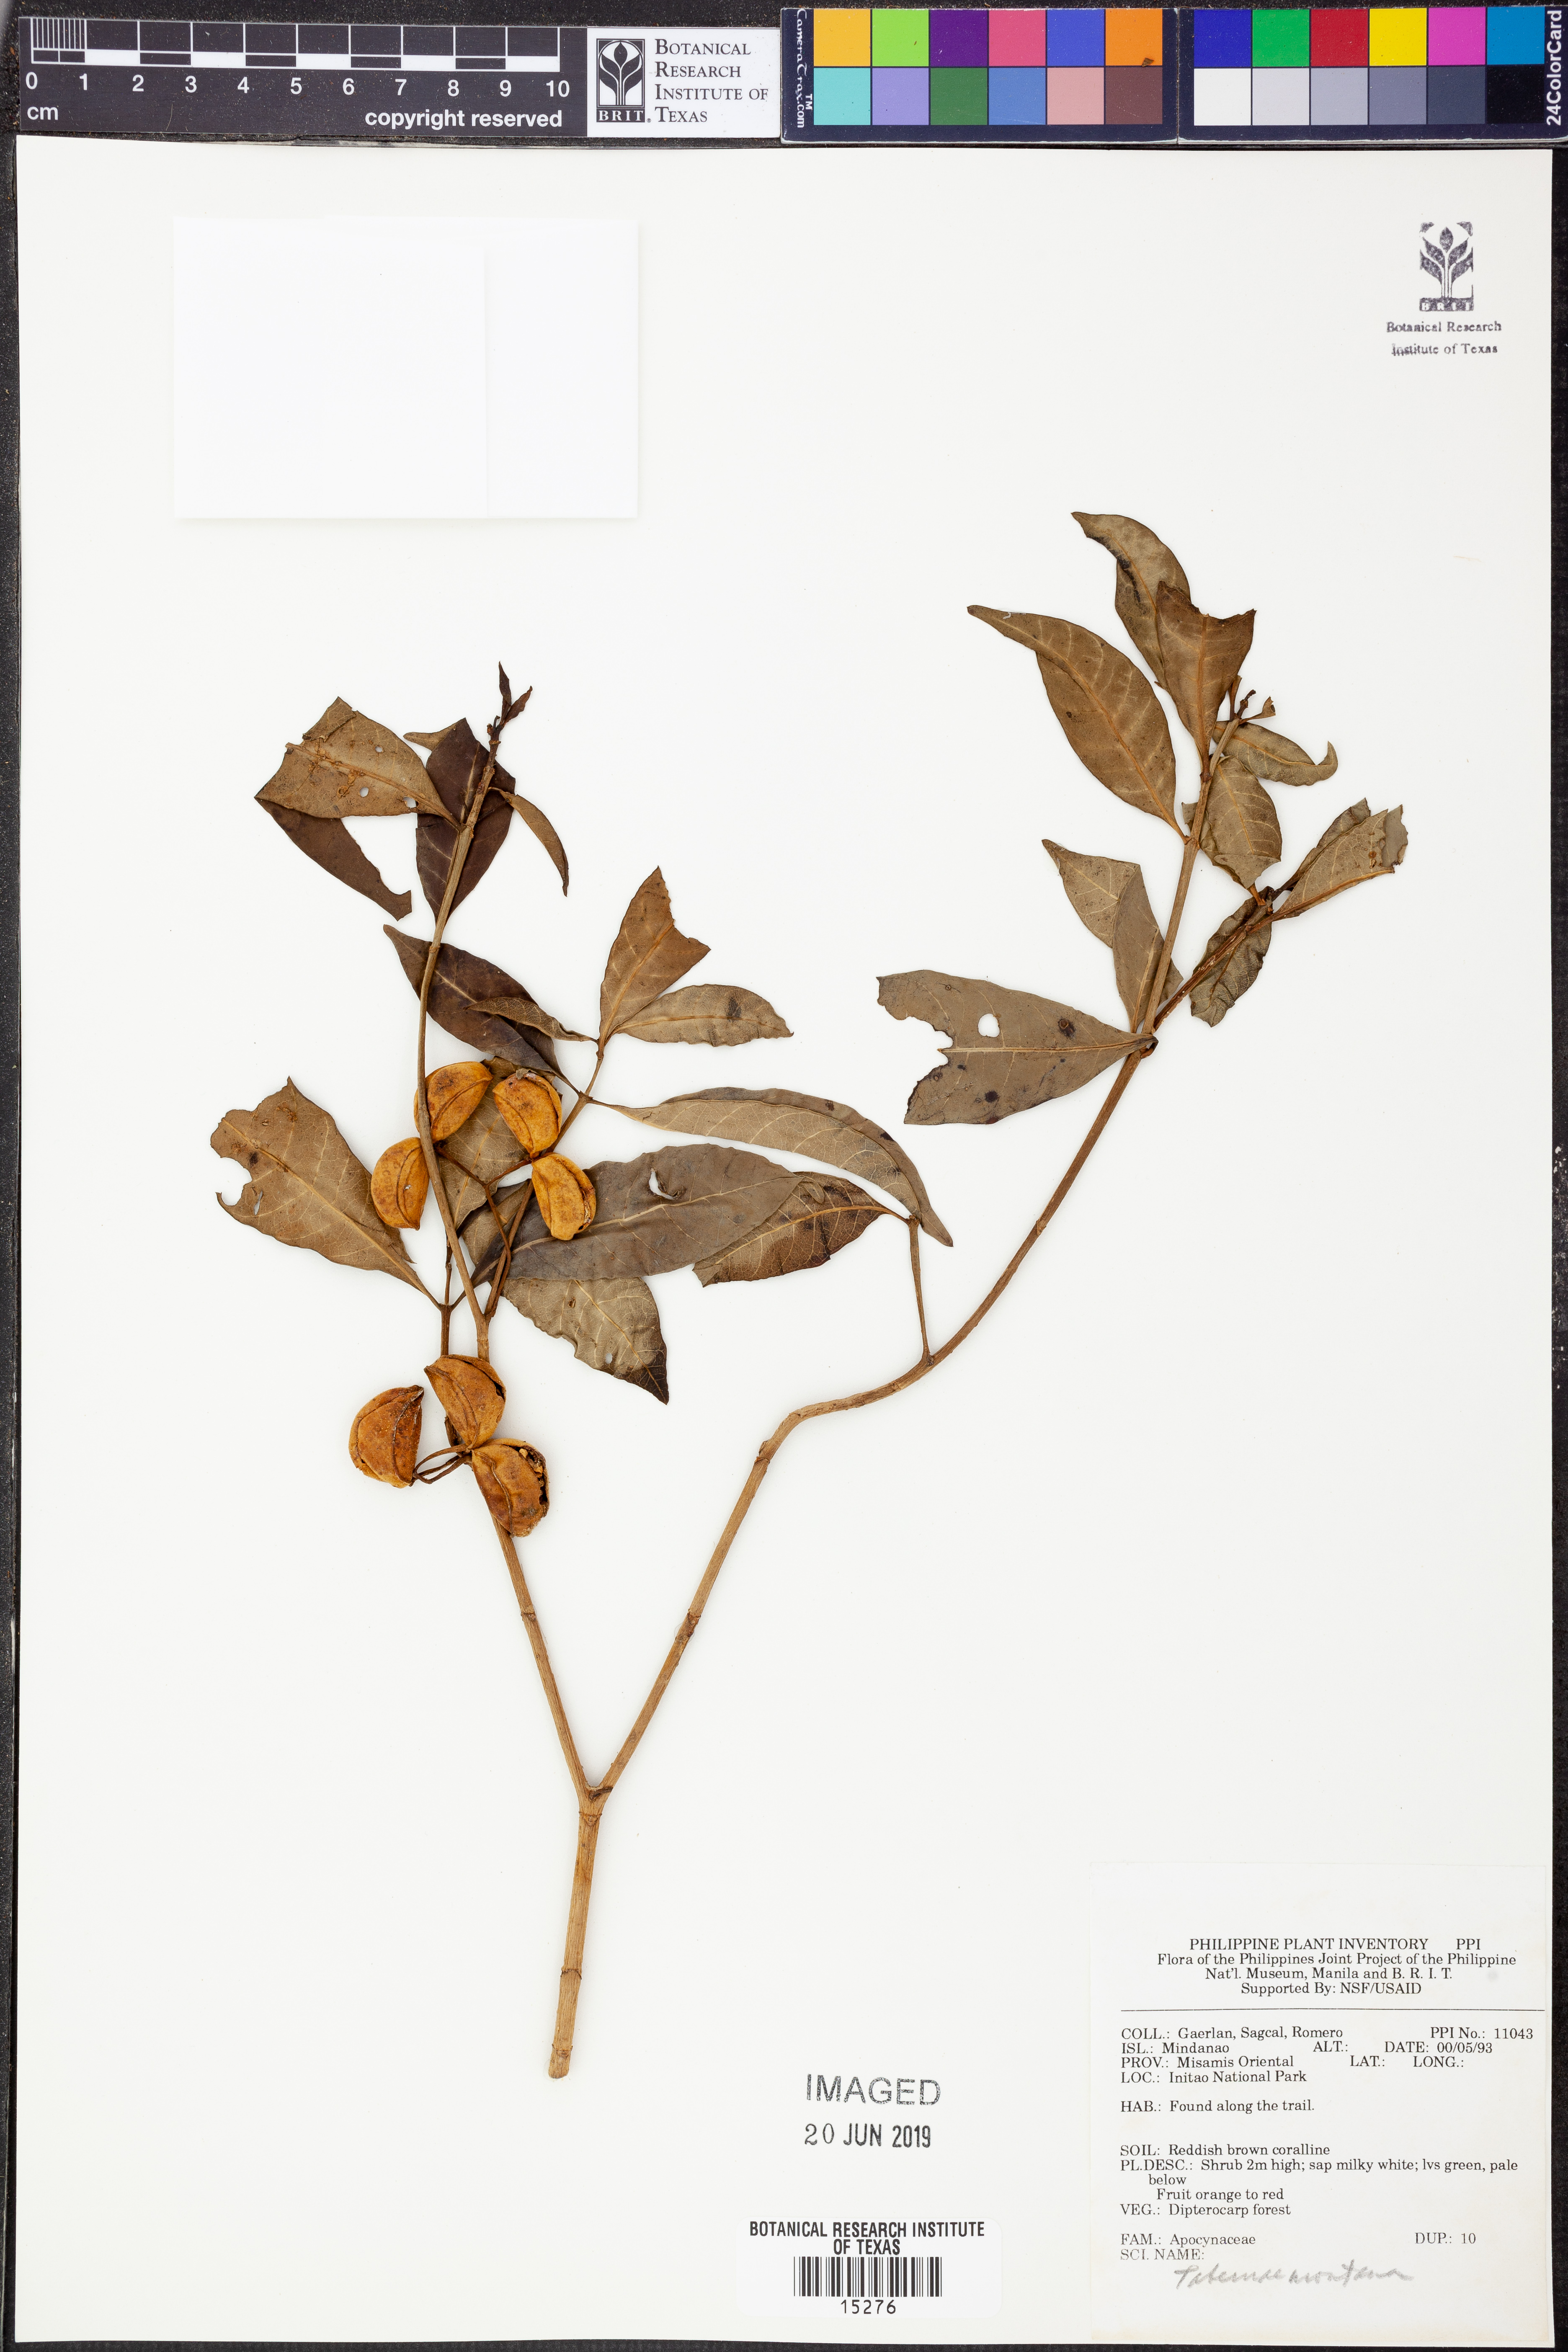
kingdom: Plantae
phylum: Tracheophyta
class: Magnoliopsida
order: Gentianales
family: Apocynaceae
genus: Tabernaemontana
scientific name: Tabernaemontana
